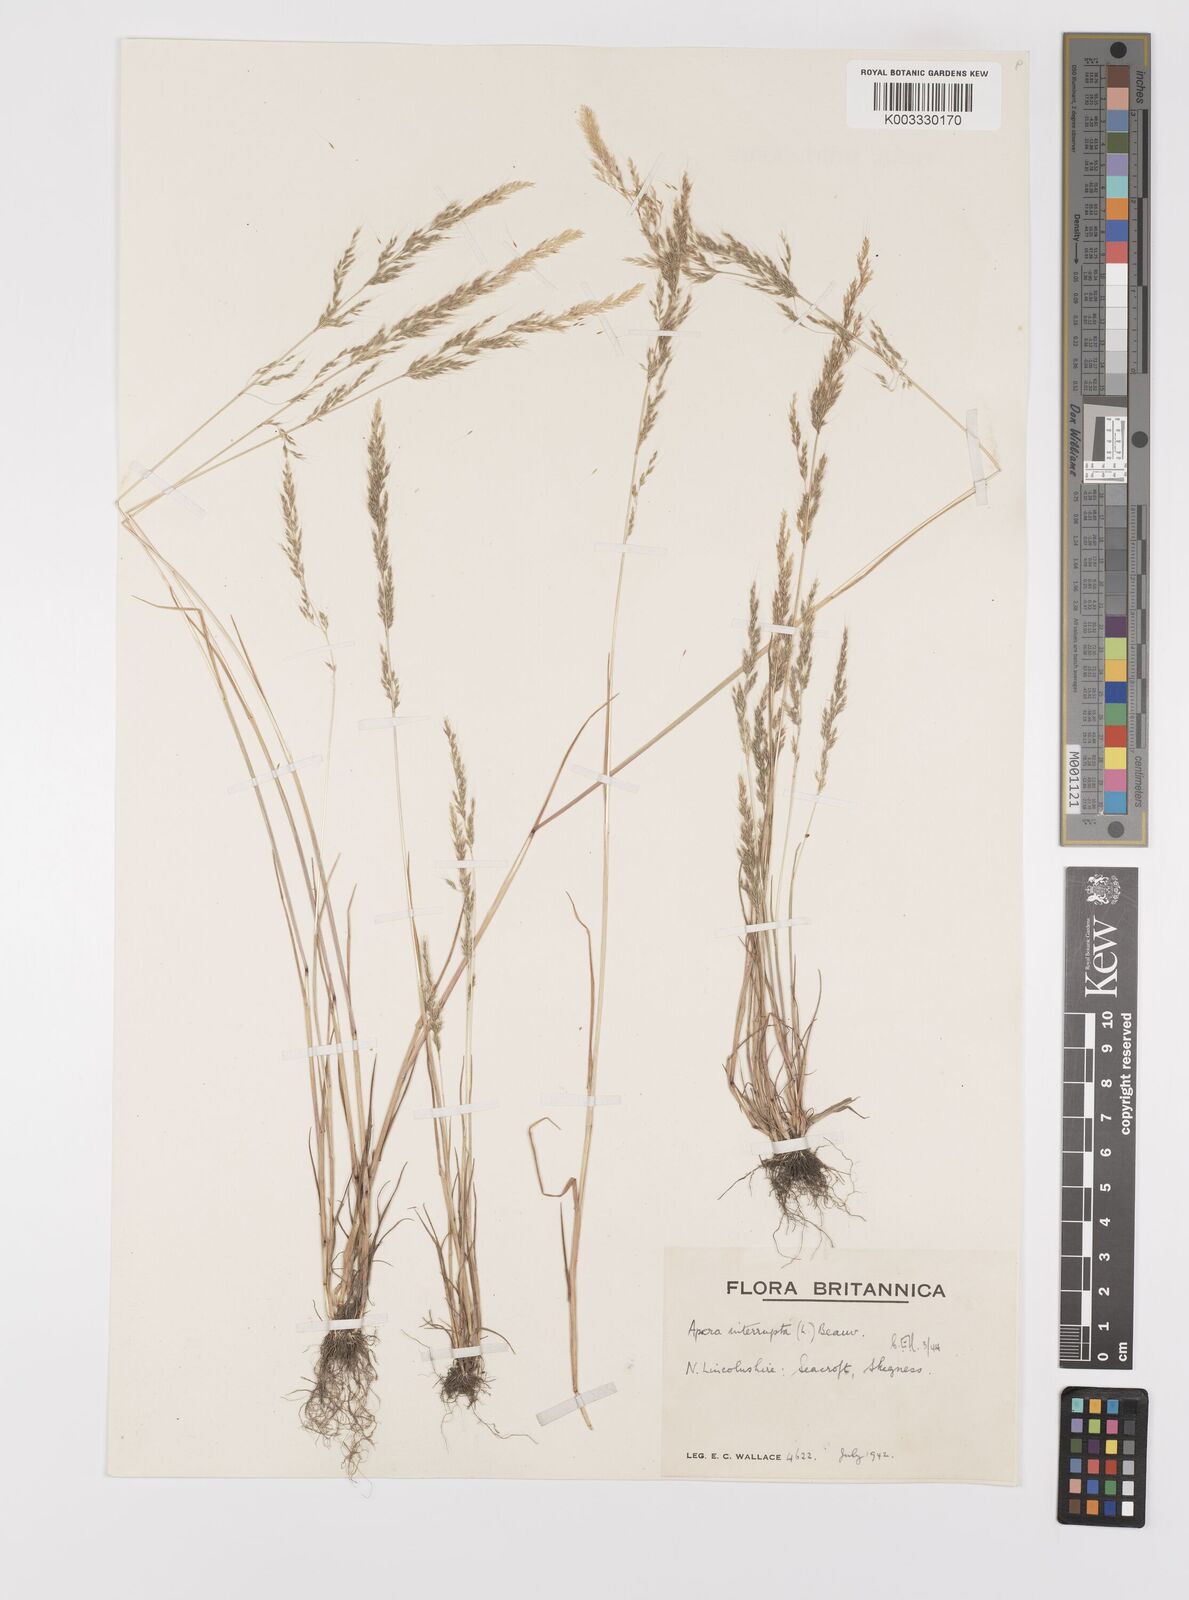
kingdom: Plantae
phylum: Tracheophyta
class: Liliopsida
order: Poales
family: Poaceae
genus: Apera
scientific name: Apera interrupta
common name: Dense silky-bent
